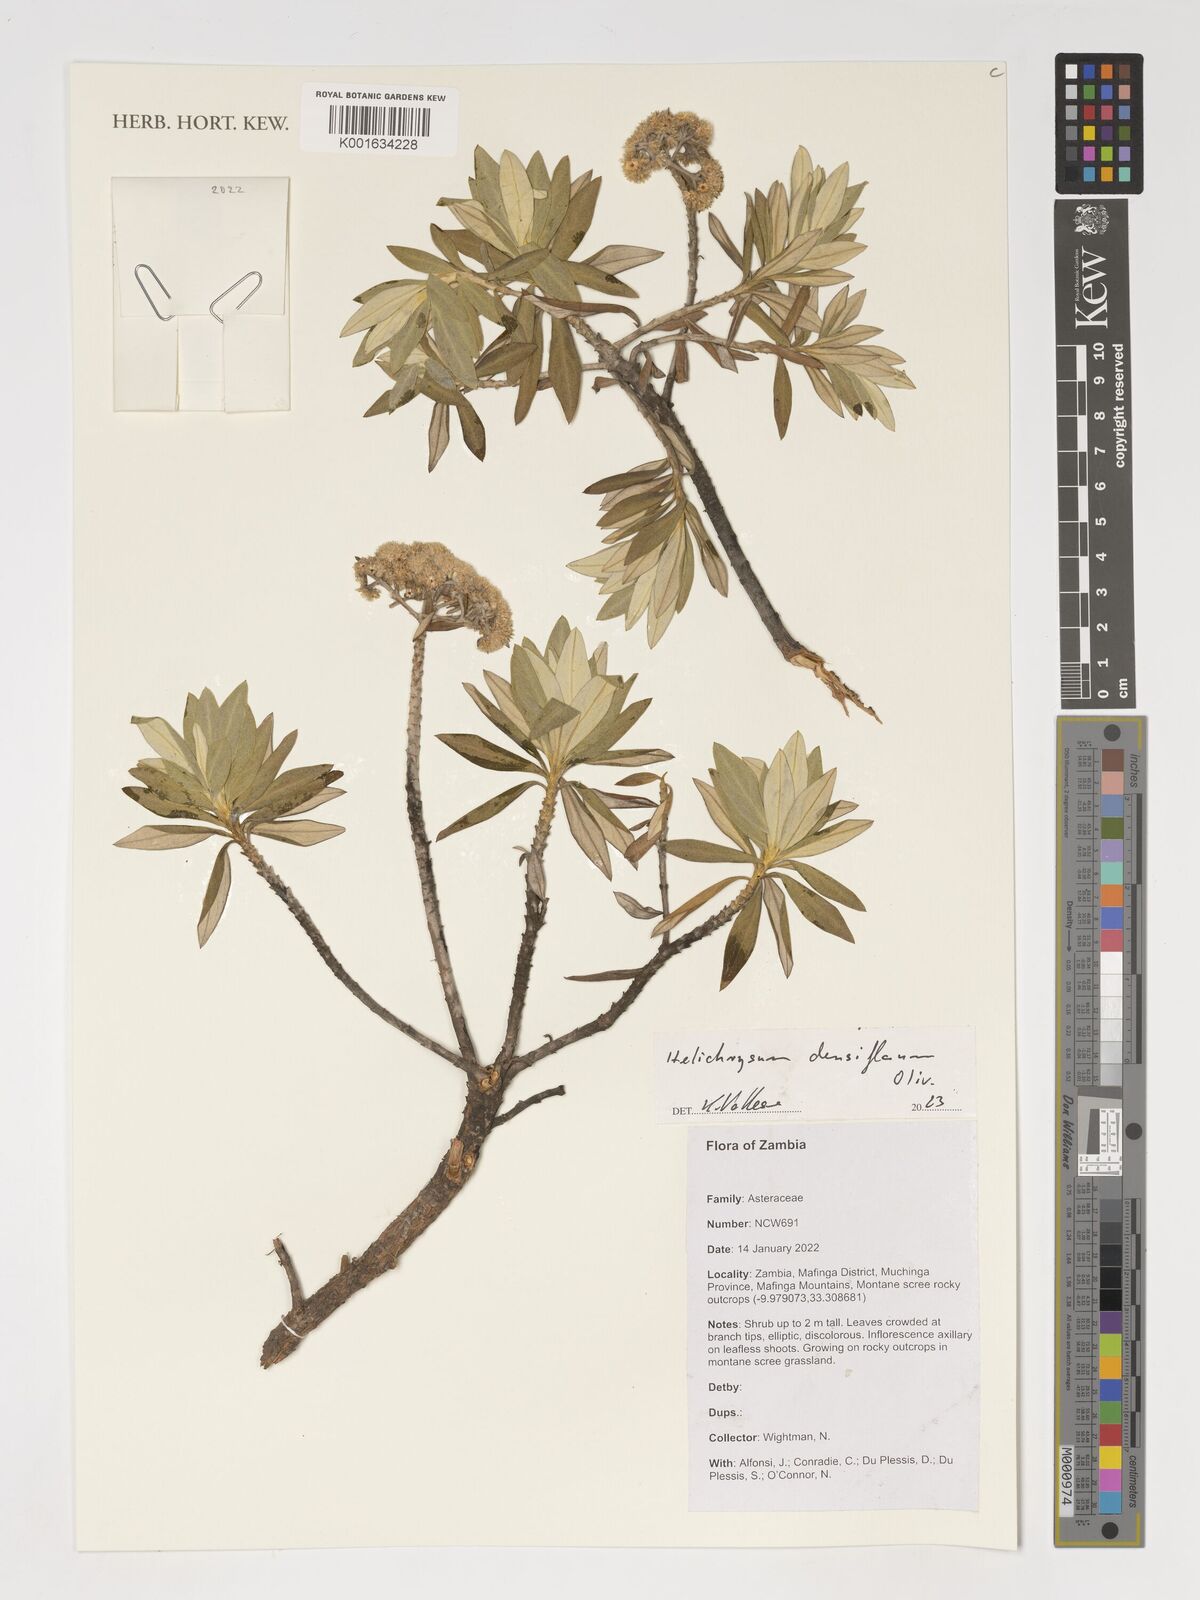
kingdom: Plantae
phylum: Tracheophyta
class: Magnoliopsida
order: Asterales
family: Asteraceae
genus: Helichrysum
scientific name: Helichrysum densiflorum
